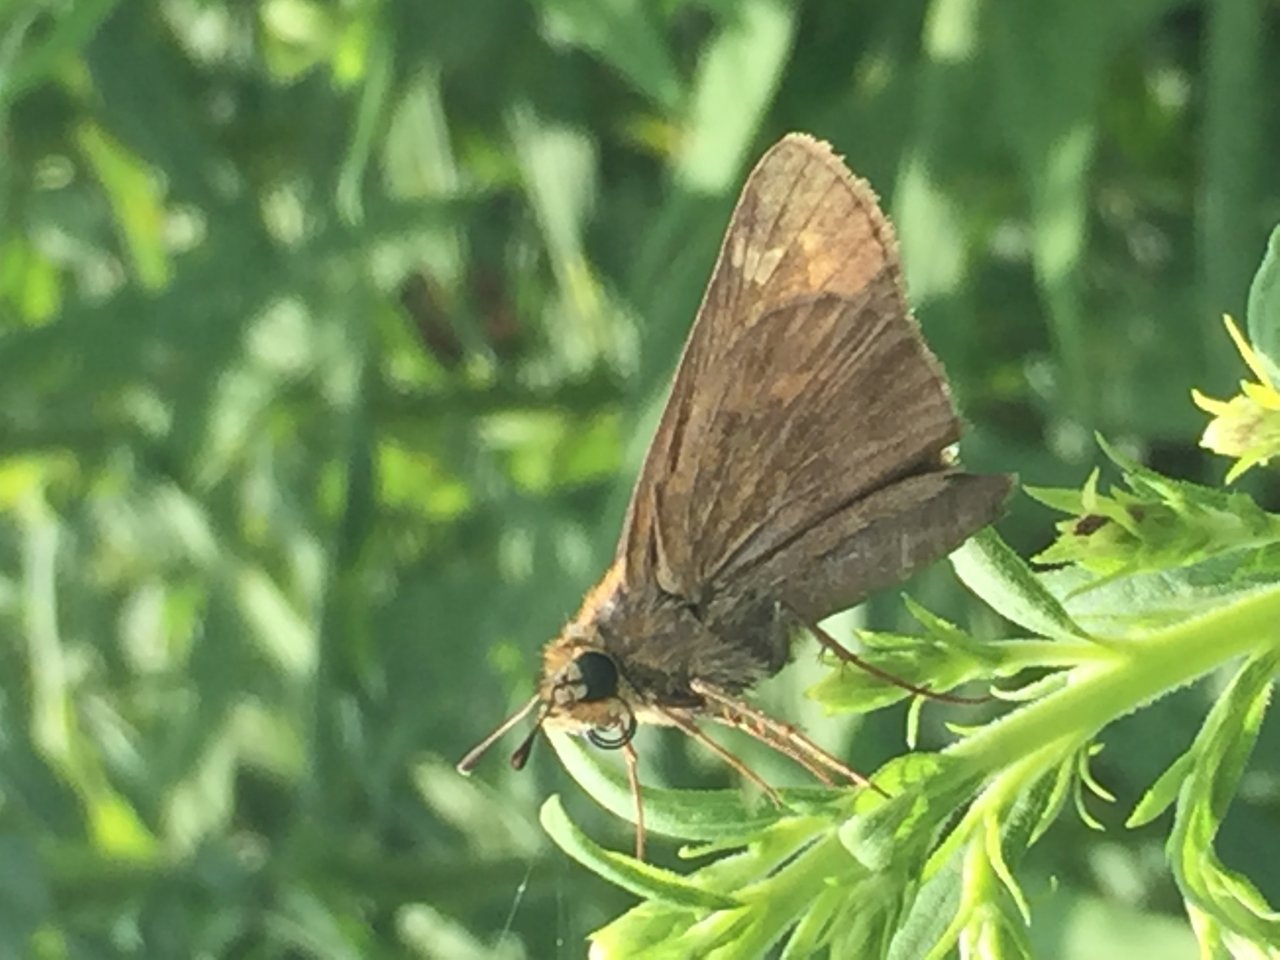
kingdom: Animalia
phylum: Arthropoda
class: Insecta
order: Lepidoptera
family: Hesperiidae
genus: Atalopedes
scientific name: Atalopedes campestris
